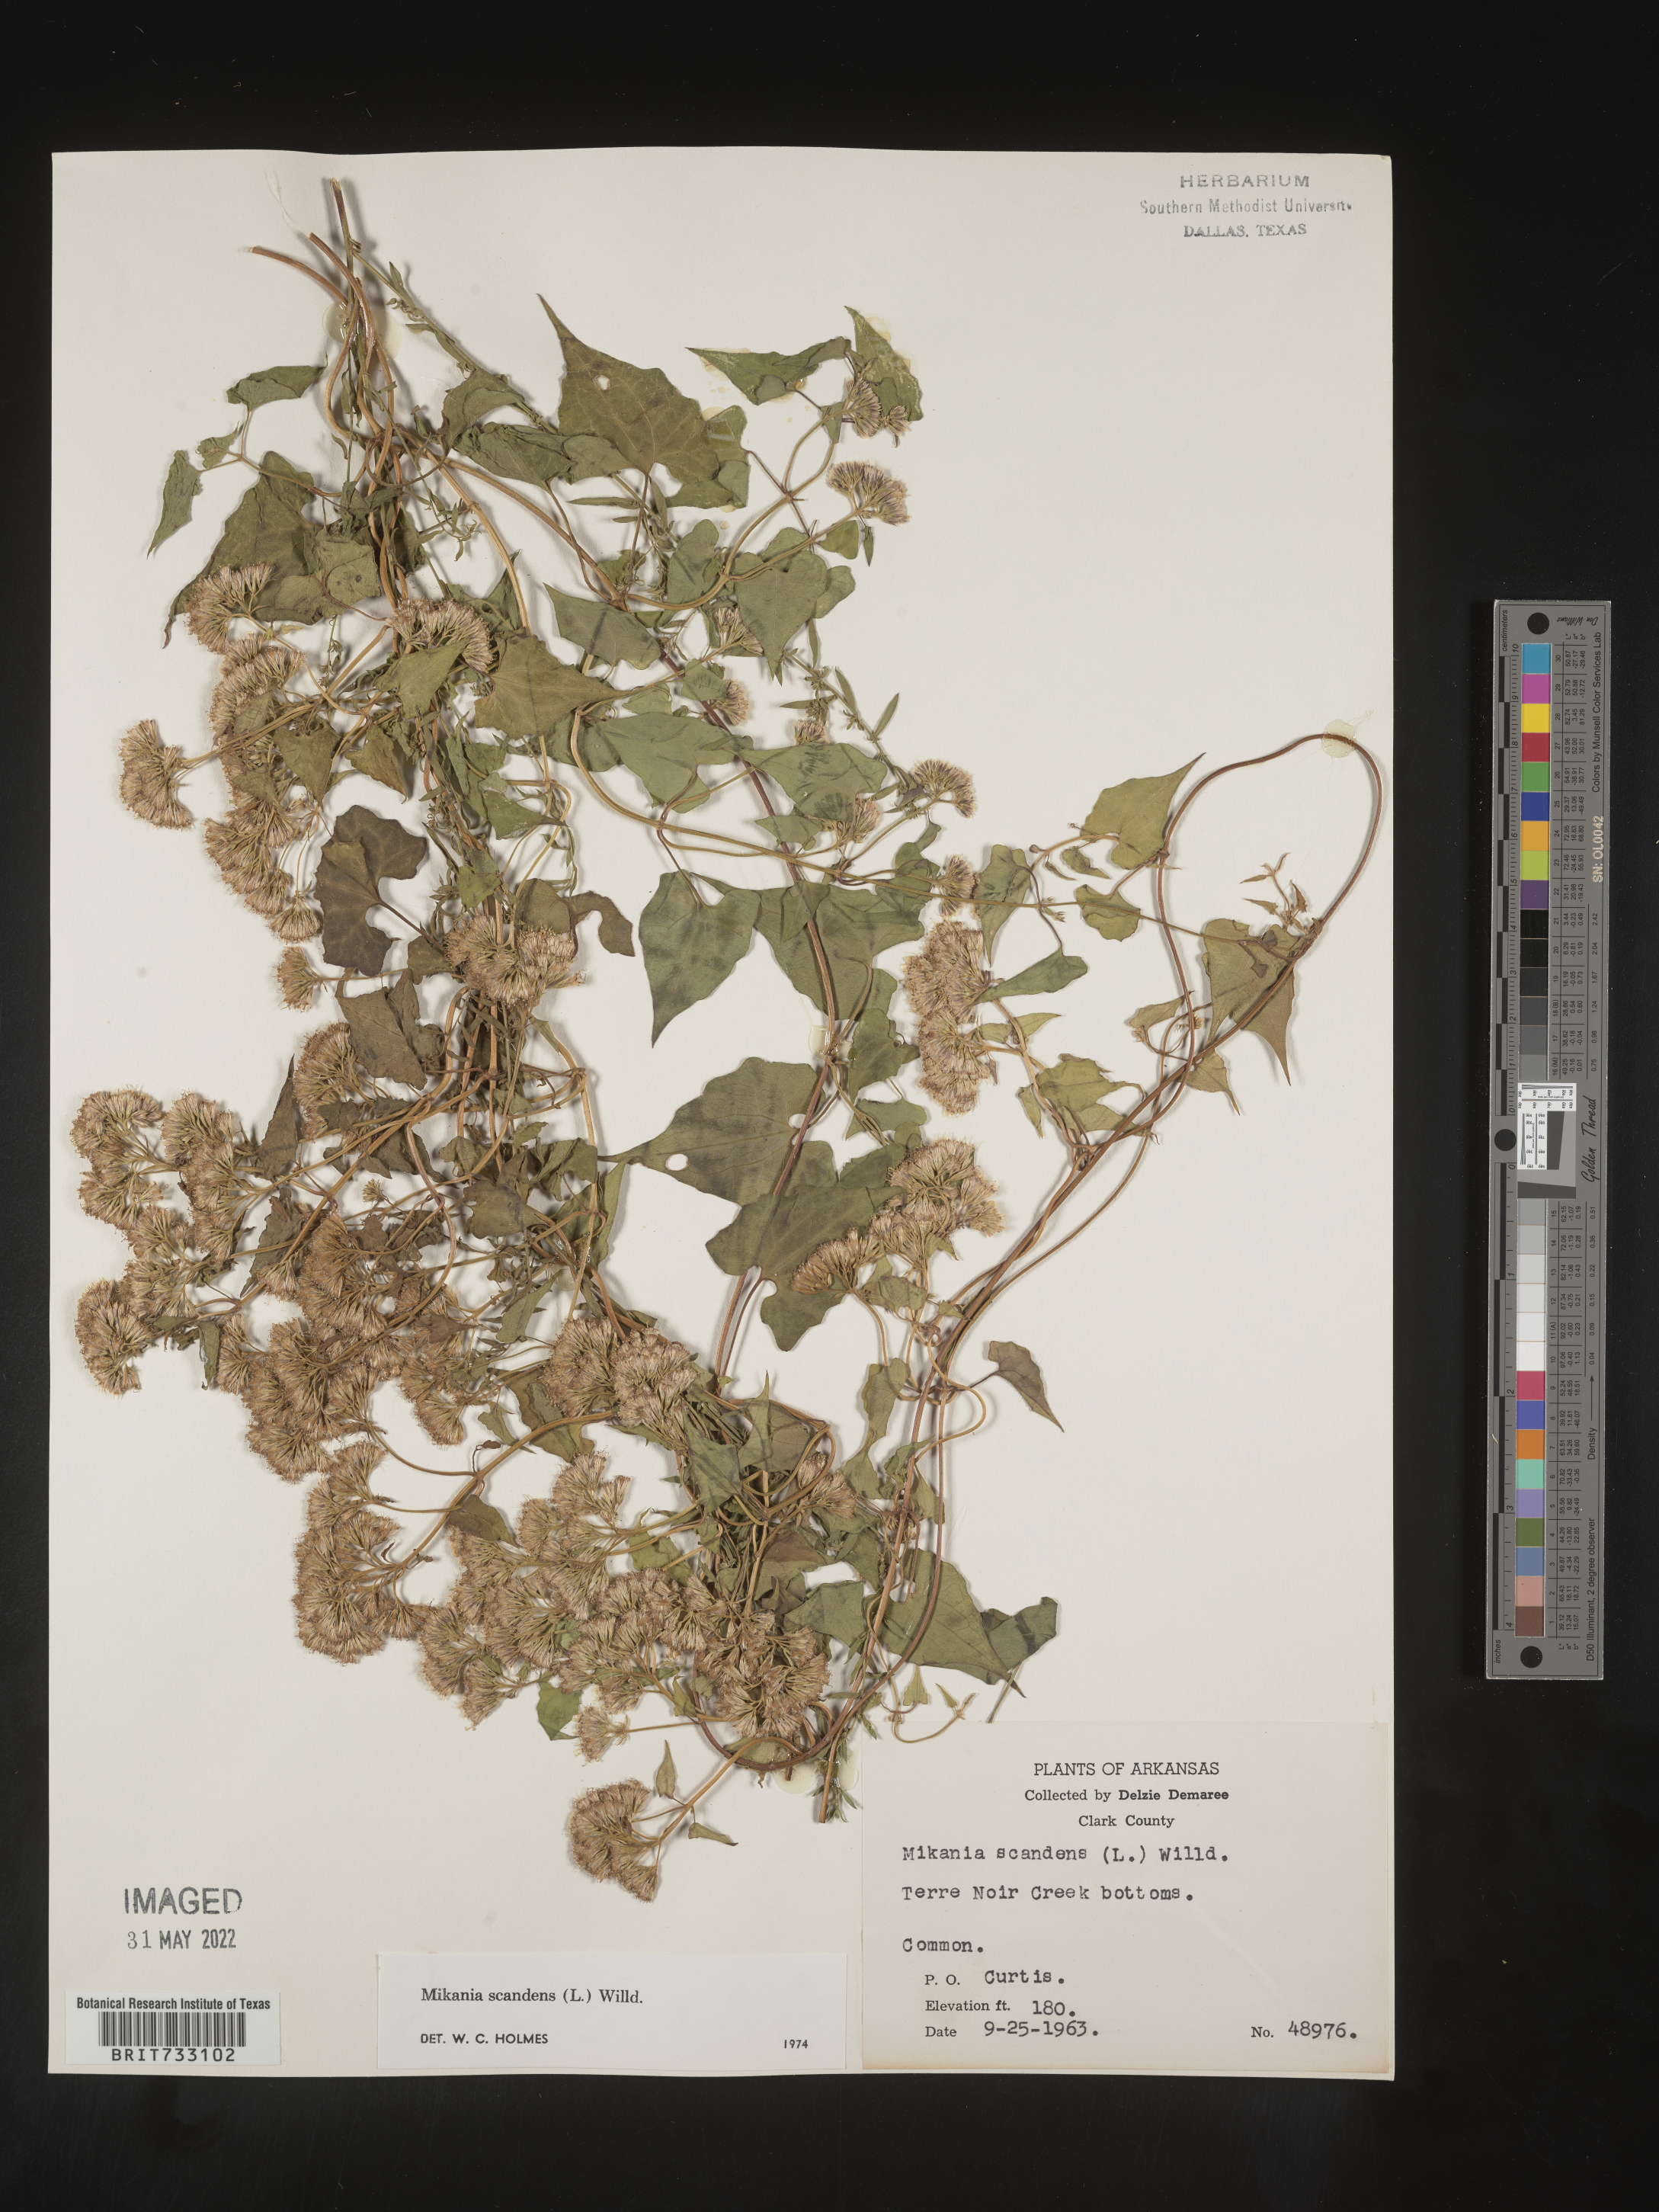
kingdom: Plantae
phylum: Tracheophyta
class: Magnoliopsida
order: Asterales
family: Asteraceae
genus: Mikania
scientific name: Mikania scandens
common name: Climbing hempvine
